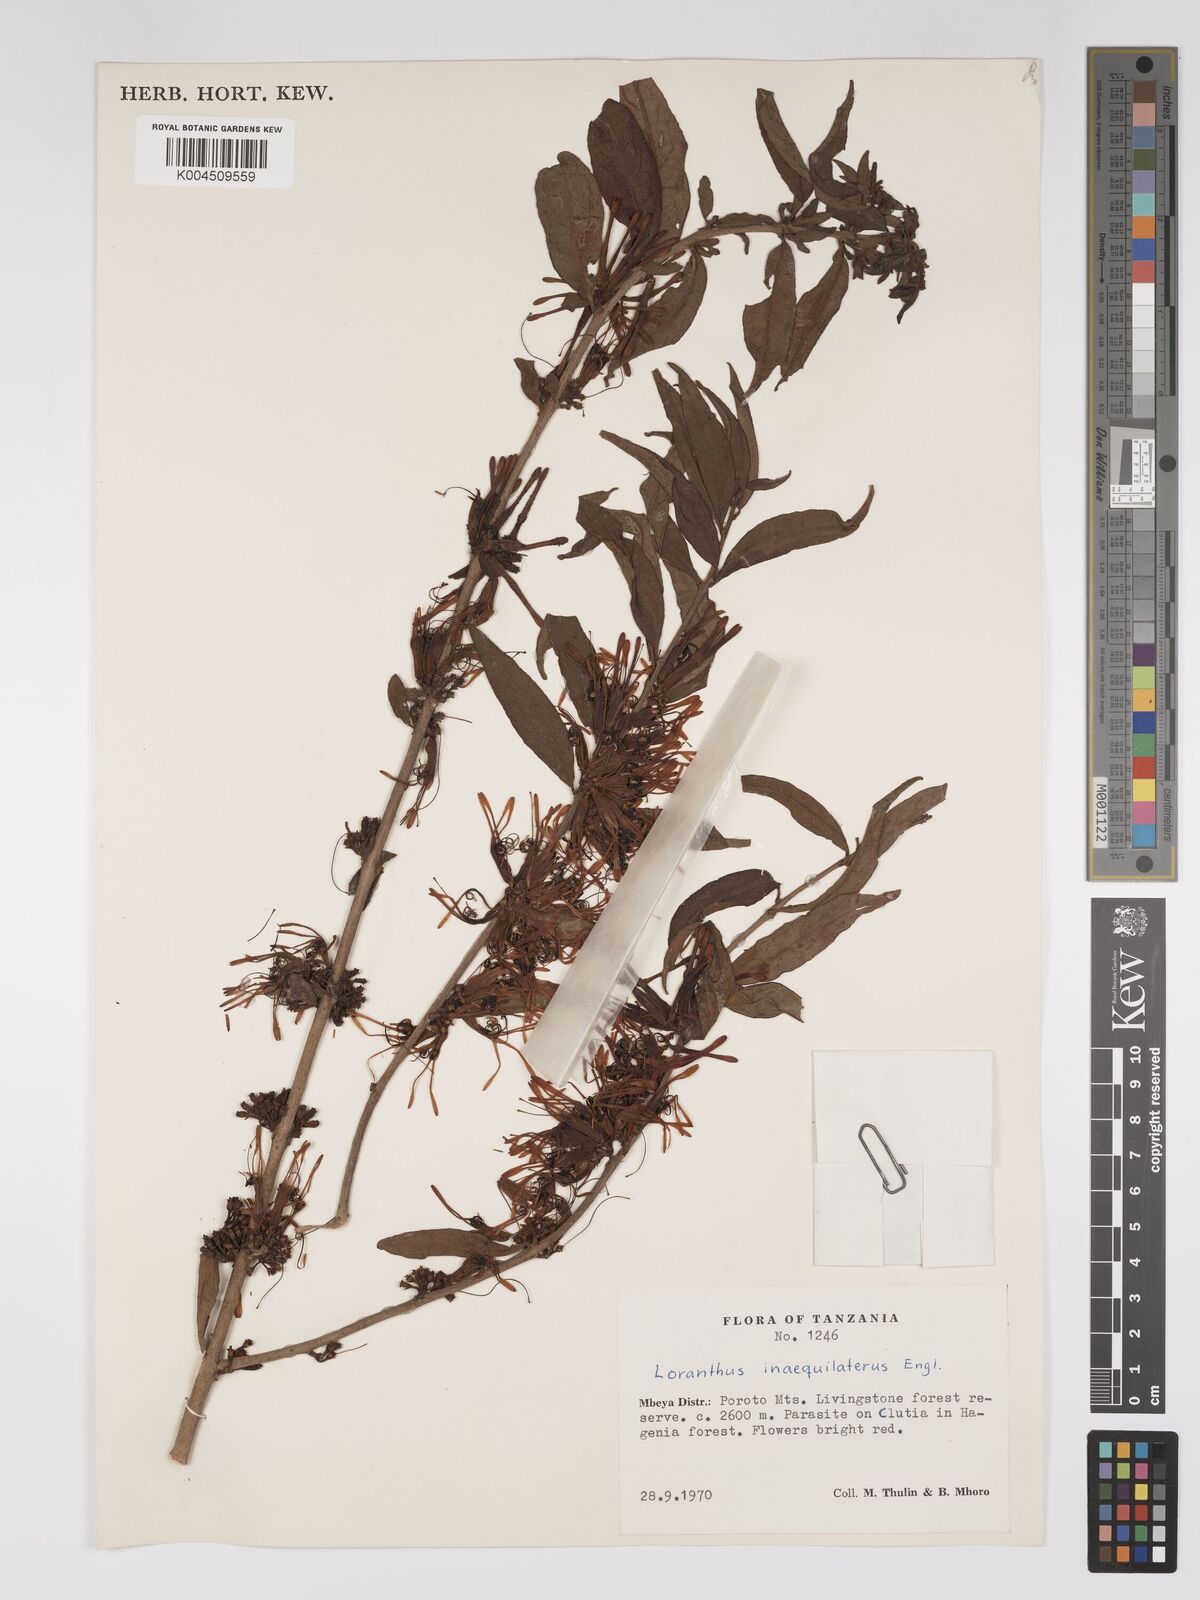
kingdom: Plantae
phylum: Tracheophyta
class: Magnoliopsida
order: Santalales
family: Loranthaceae
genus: Englerina
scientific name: Englerina inaequilatera
